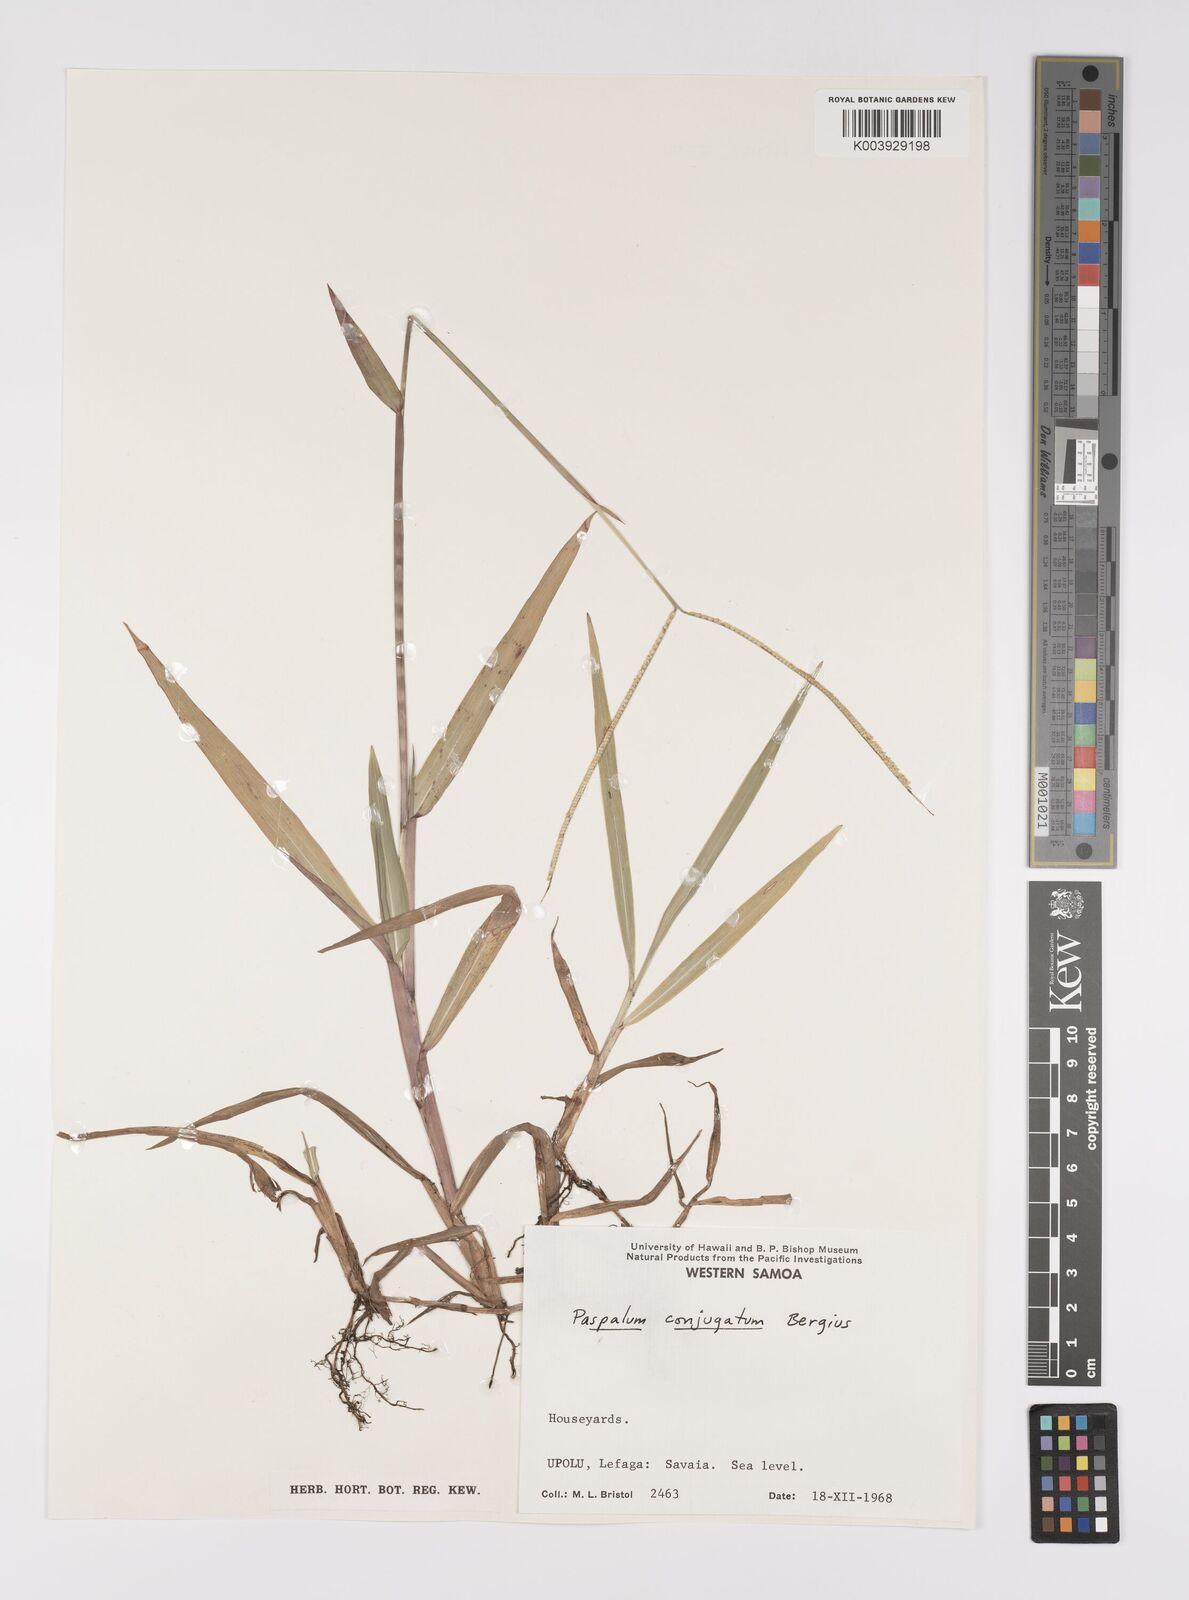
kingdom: Plantae
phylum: Tracheophyta
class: Liliopsida
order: Poales
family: Poaceae
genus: Paspalum
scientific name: Paspalum conjugatum
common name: Hilograss
